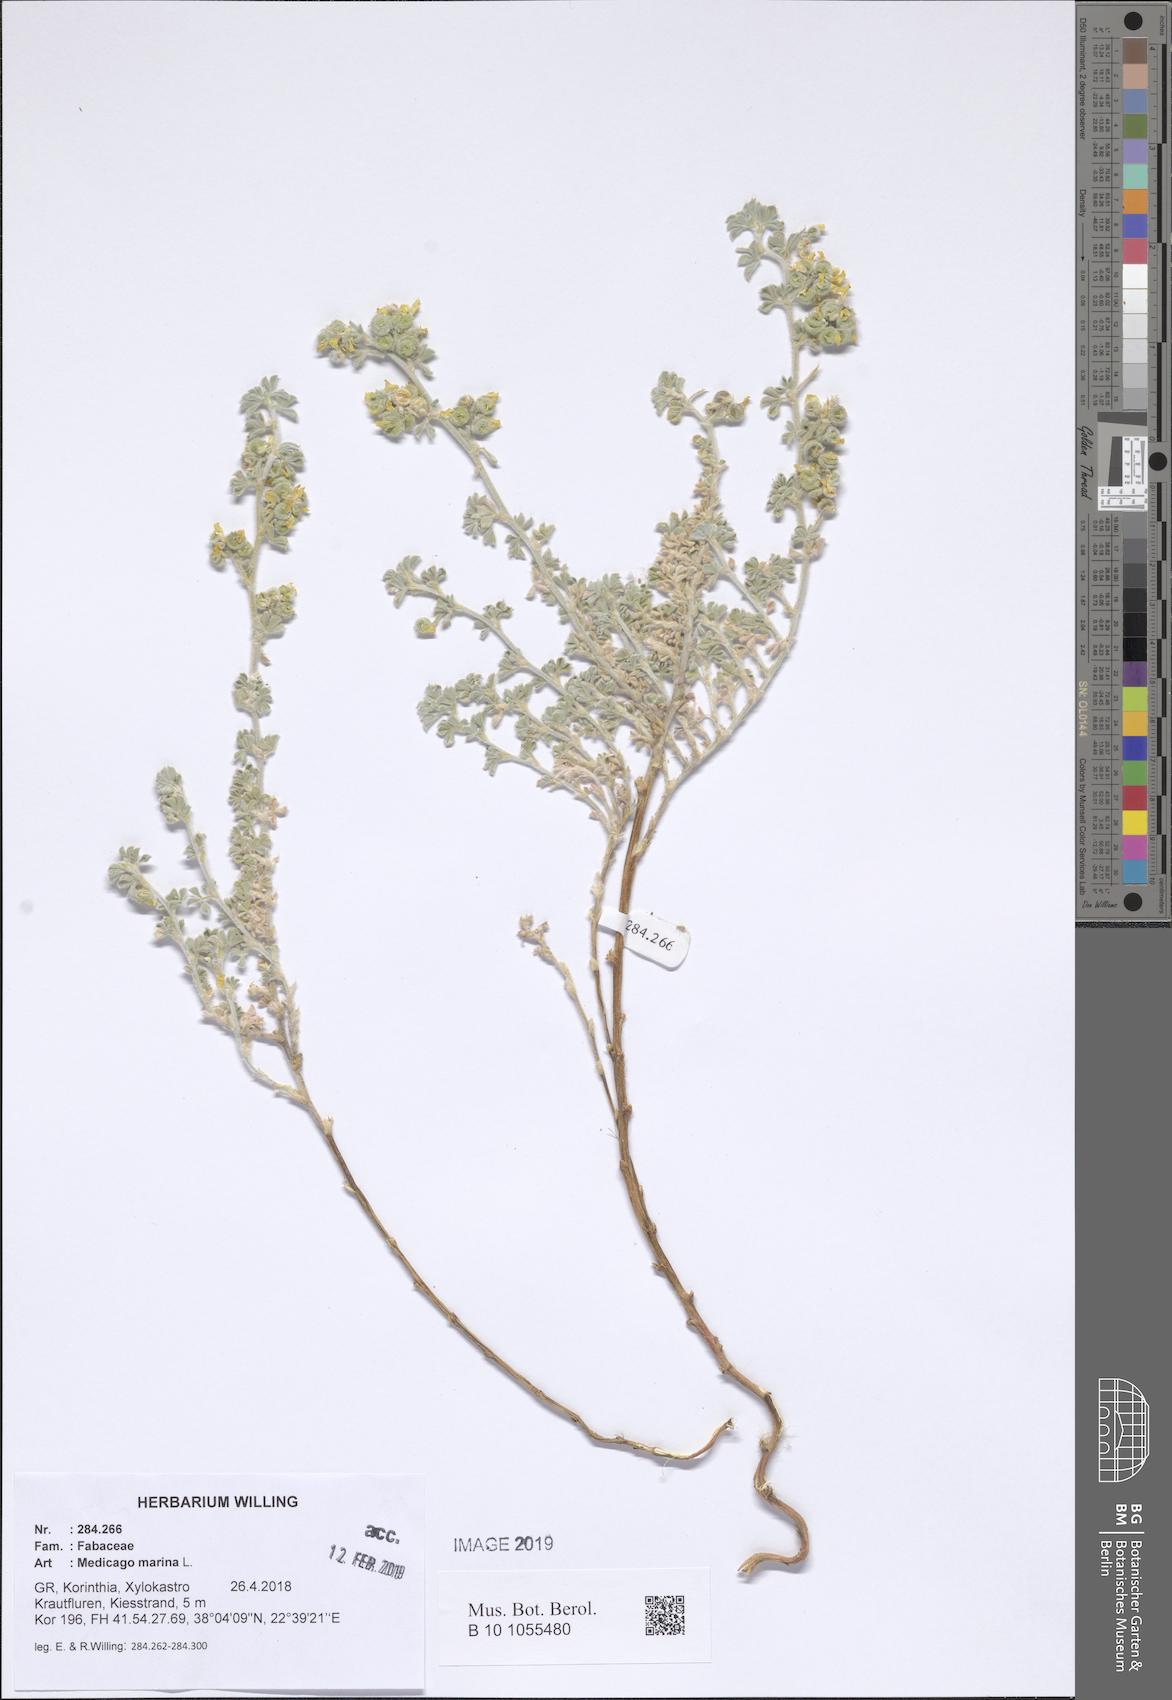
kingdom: Plantae
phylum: Tracheophyta
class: Magnoliopsida
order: Fabales
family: Fabaceae
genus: Medicago
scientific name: Medicago marina
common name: Sea medick
